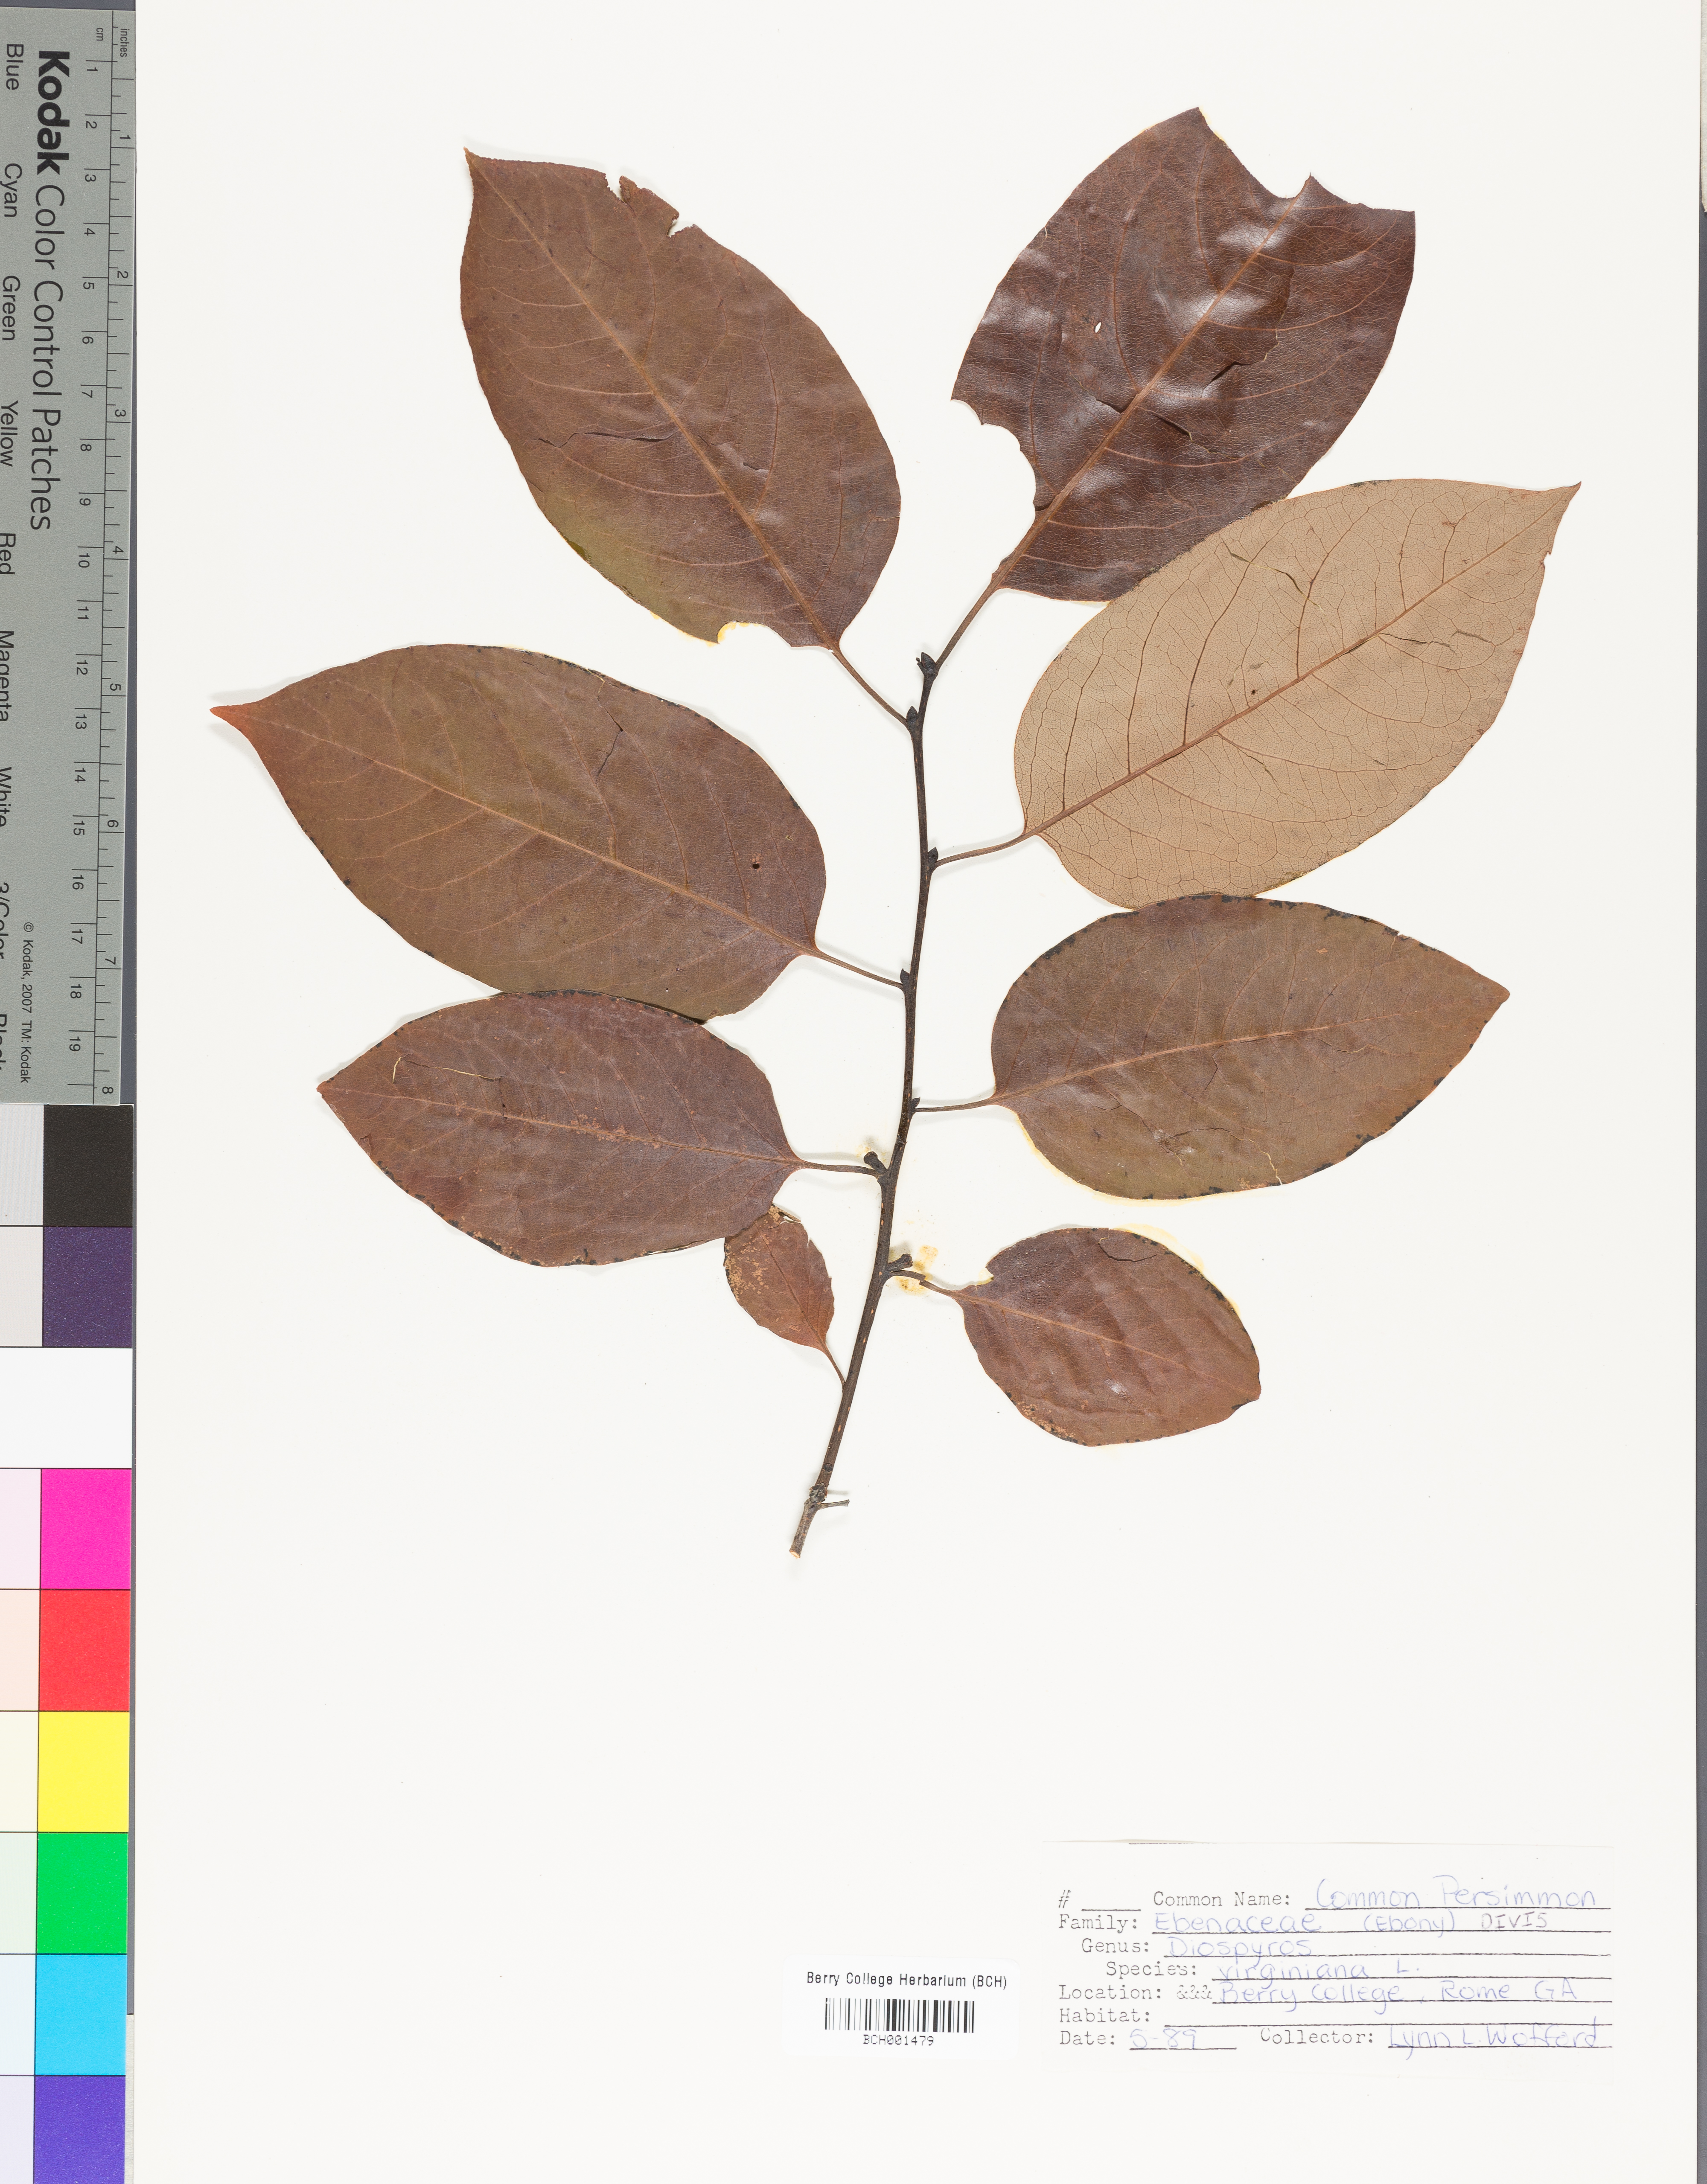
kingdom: Plantae
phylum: Tracheophyta
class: Magnoliopsida
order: Ericales
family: Ebenaceae
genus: Diospyros
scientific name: Diospyros virginiana
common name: Persimmon
